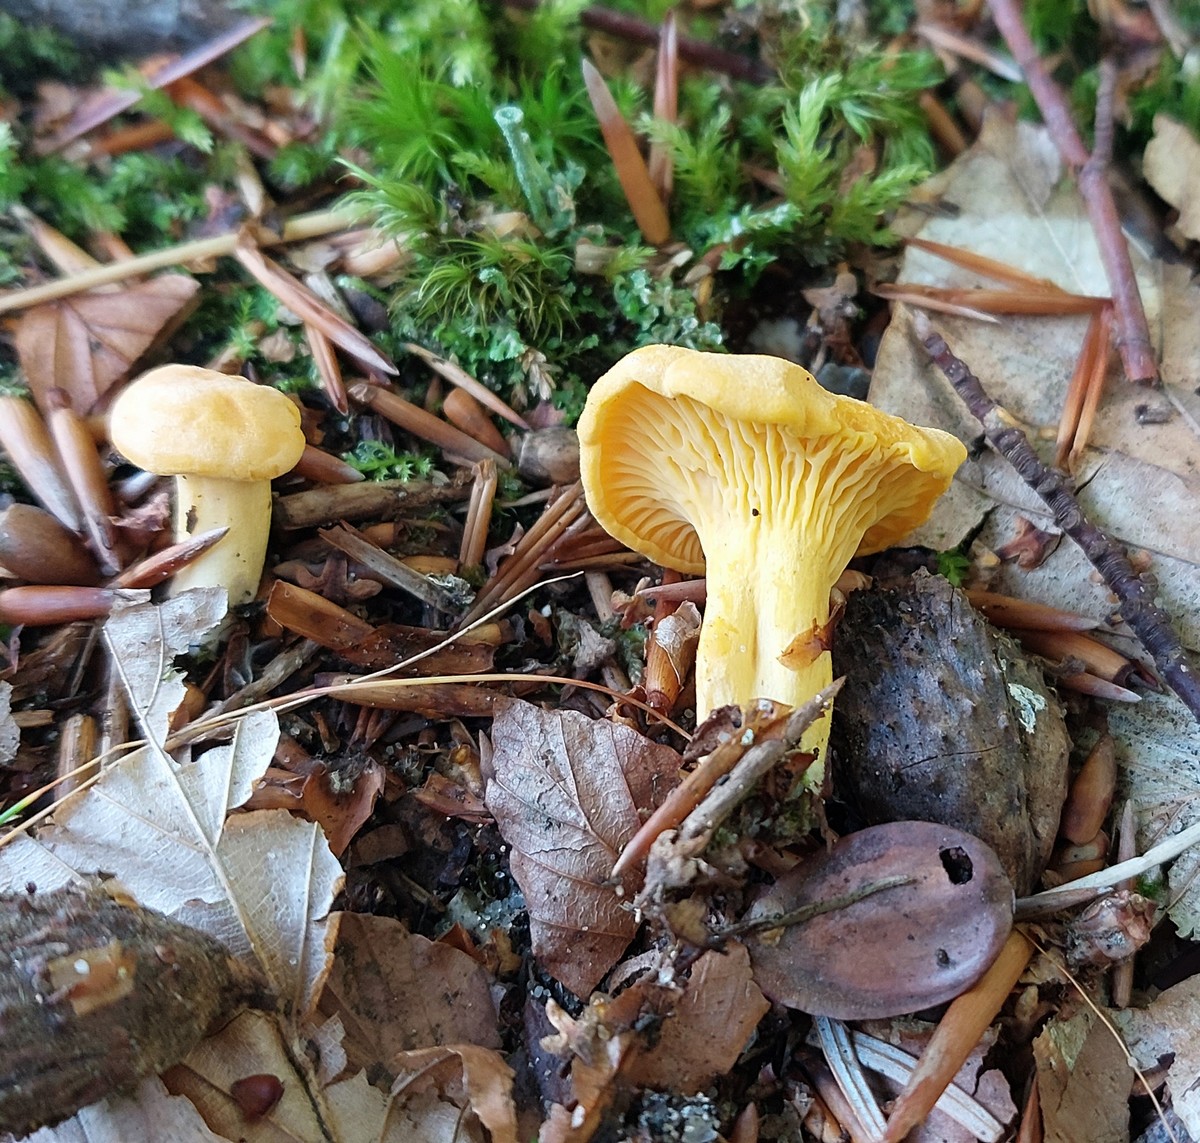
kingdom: Fungi
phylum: Basidiomycota
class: Agaricomycetes
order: Cantharellales
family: Hydnaceae
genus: Cantharellus
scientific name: Cantharellus cibarius
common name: almindelig kantarel
